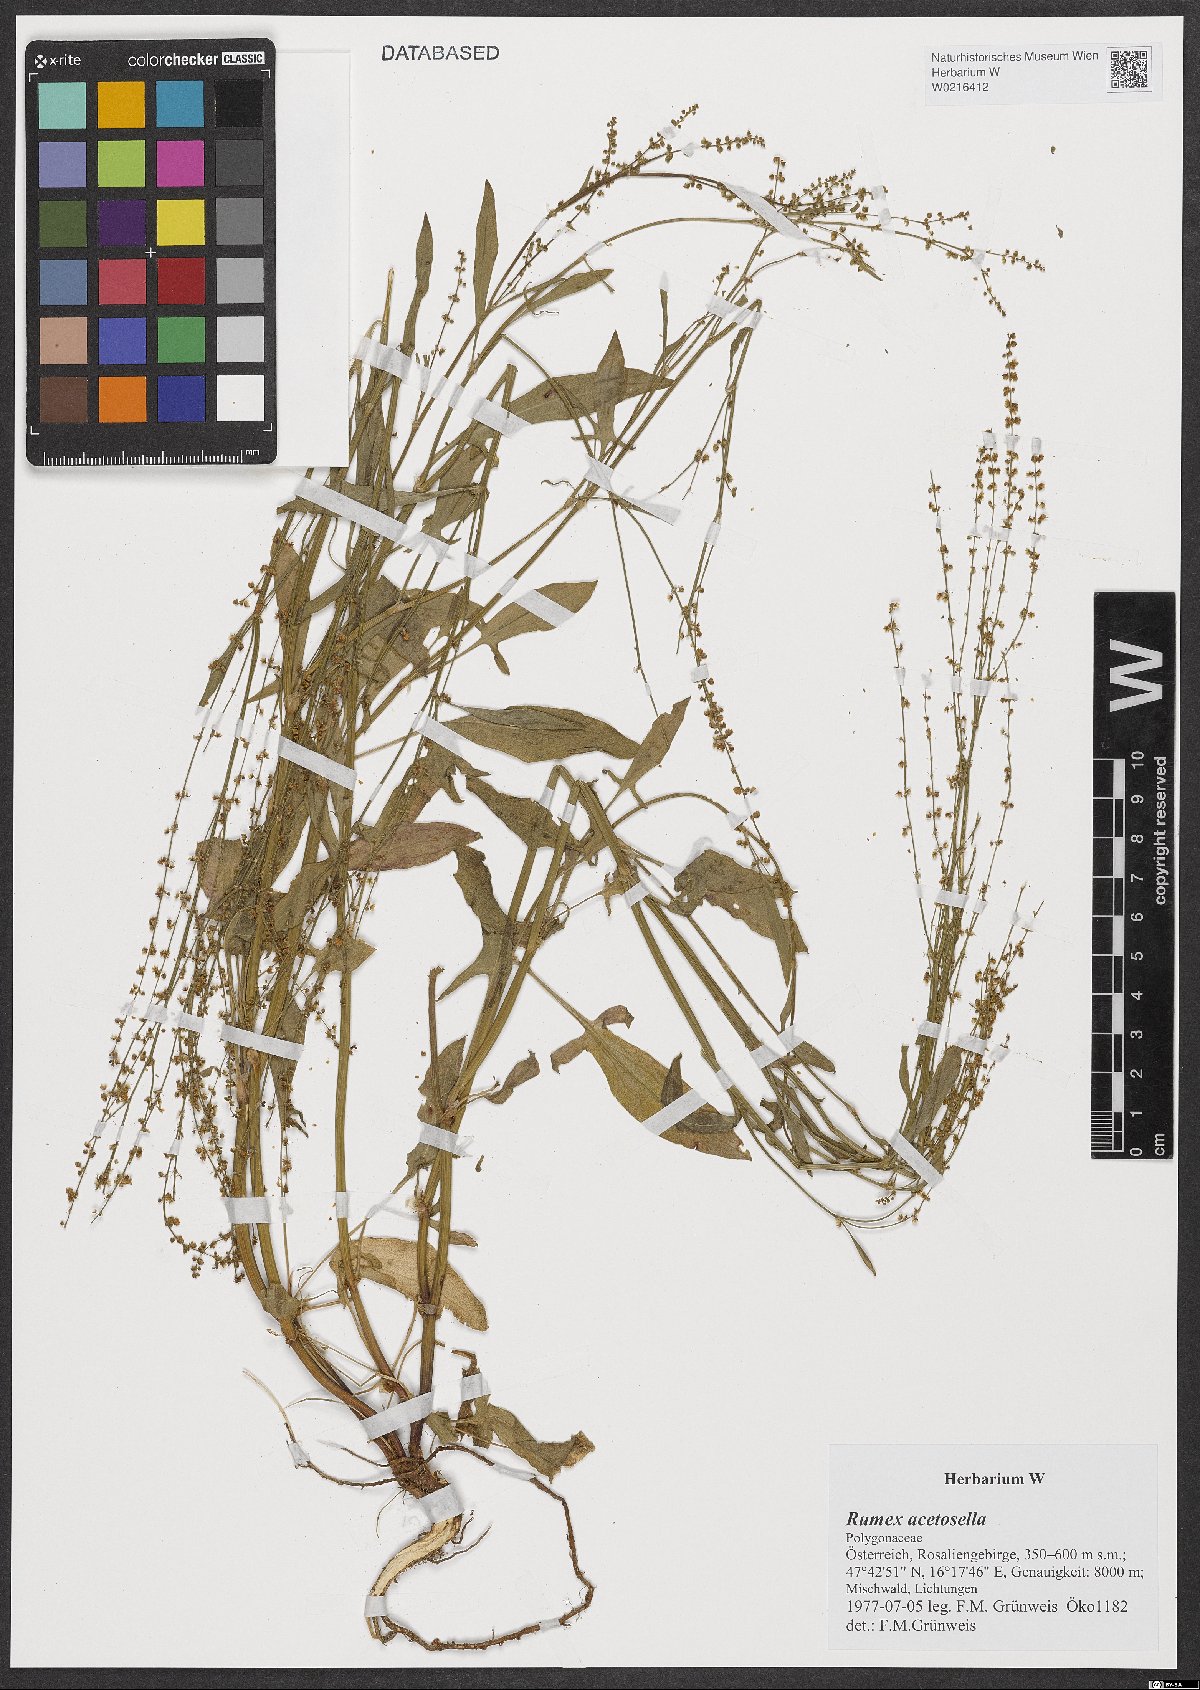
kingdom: Plantae
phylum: Tracheophyta
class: Magnoliopsida
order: Caryophyllales
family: Polygonaceae
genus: Rumex
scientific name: Rumex acetosella
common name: Common sheep sorrel
